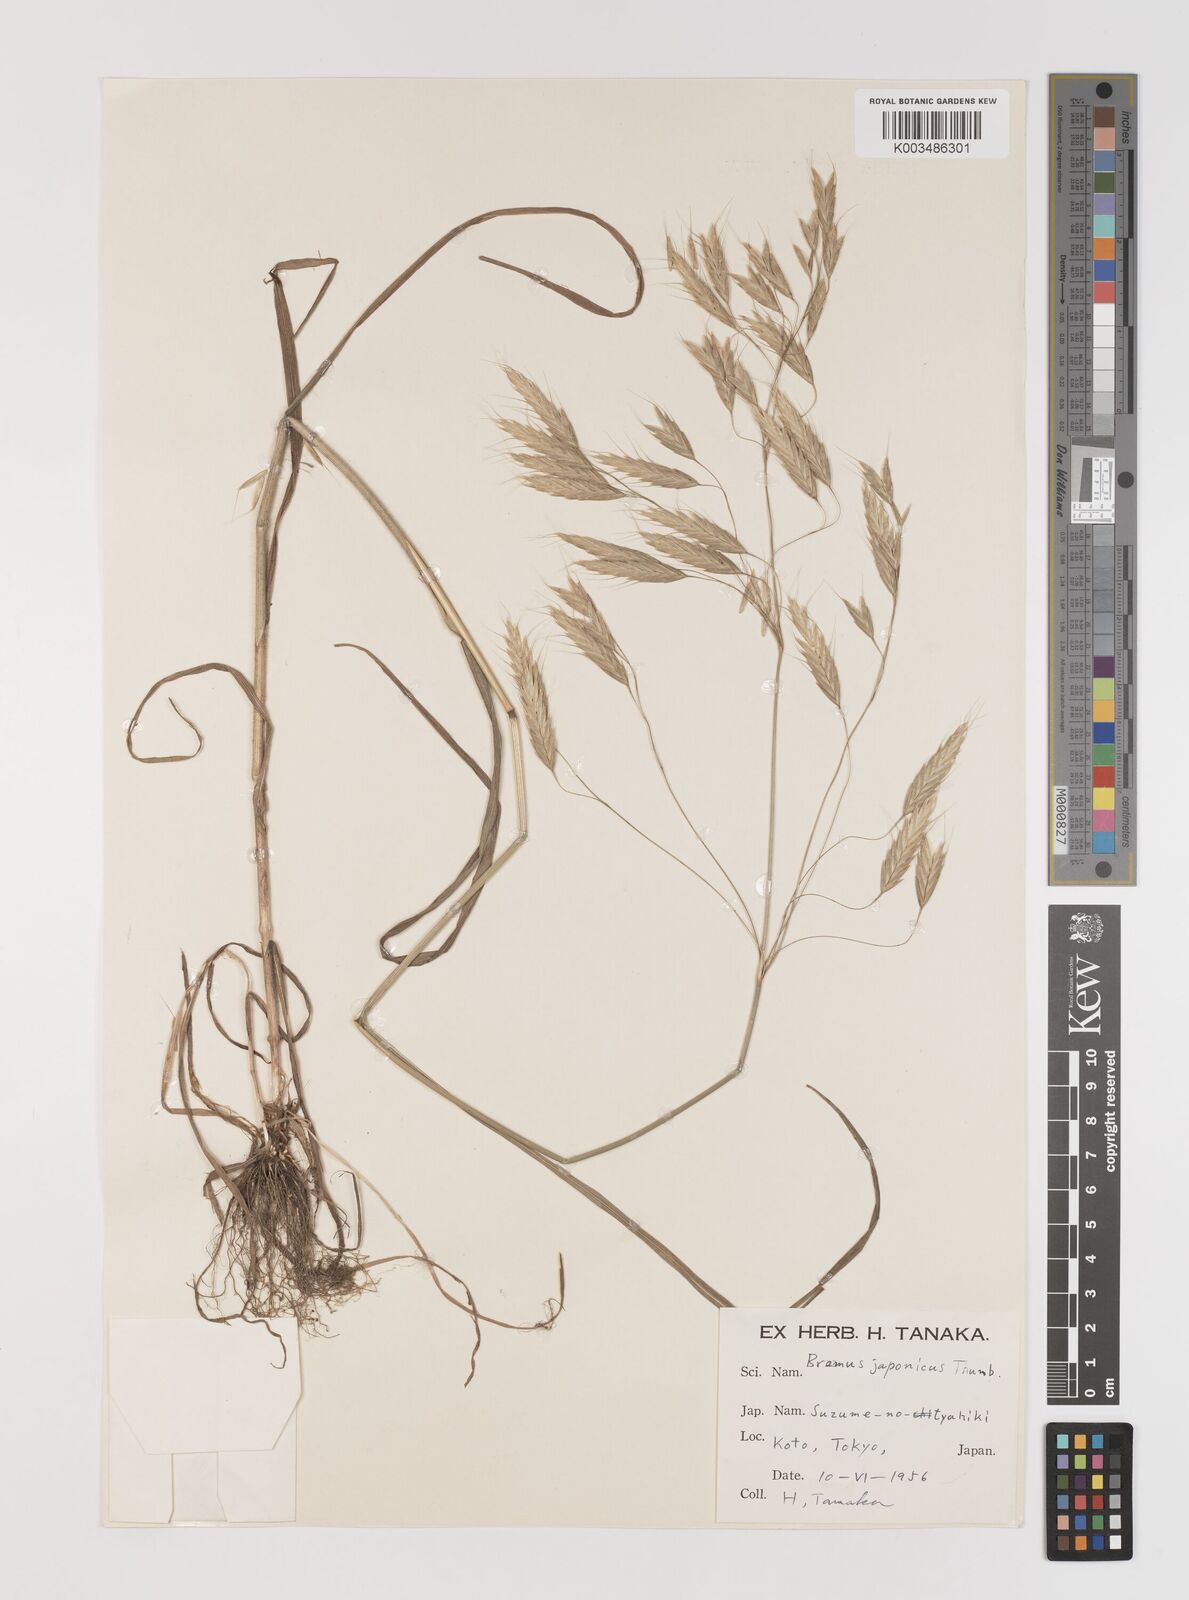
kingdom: Plantae
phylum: Tracheophyta
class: Liliopsida
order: Poales
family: Poaceae
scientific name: Poaceae
